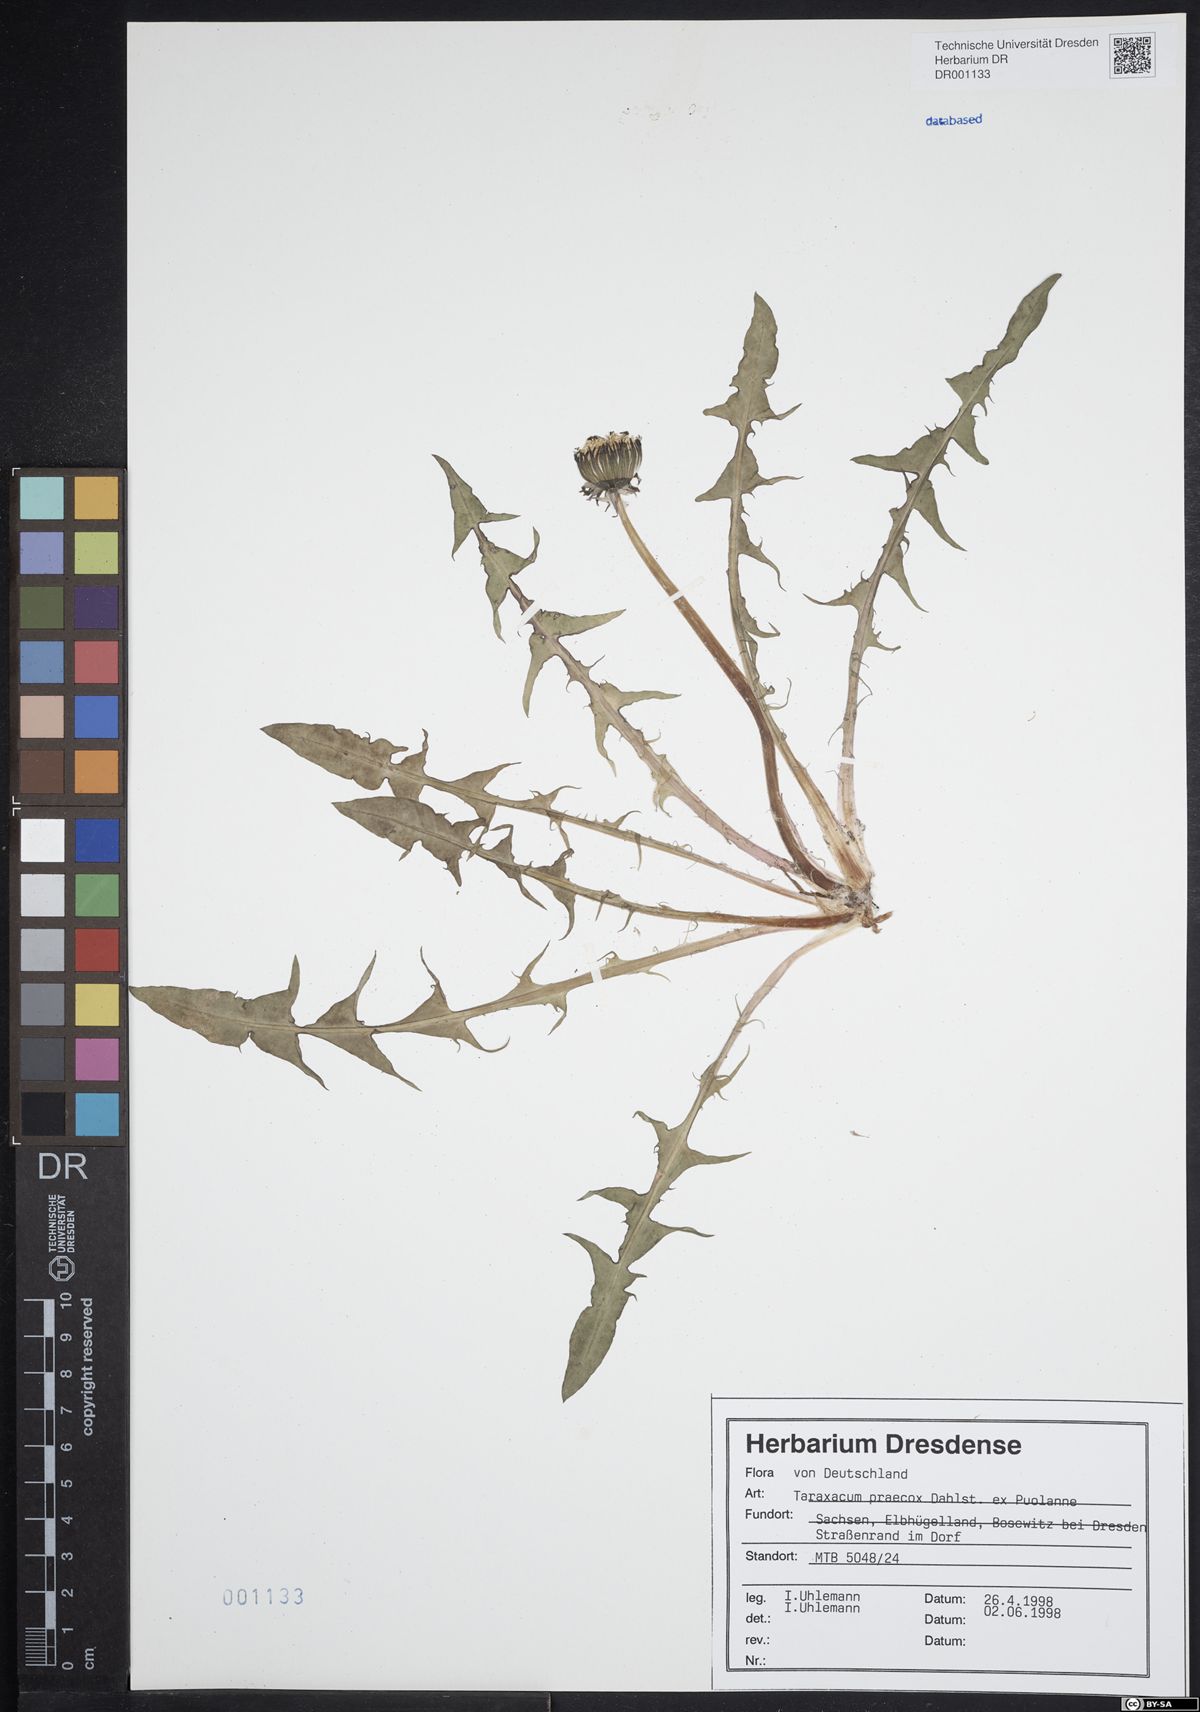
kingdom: Plantae
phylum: Tracheophyta
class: Magnoliopsida
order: Asterales
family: Asteraceae
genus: Taraxacum
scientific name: Taraxacum praecox
